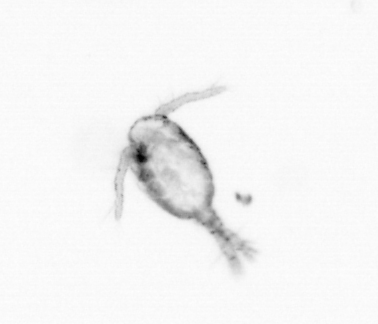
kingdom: Animalia
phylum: Arthropoda
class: Copepoda
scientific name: Copepoda
